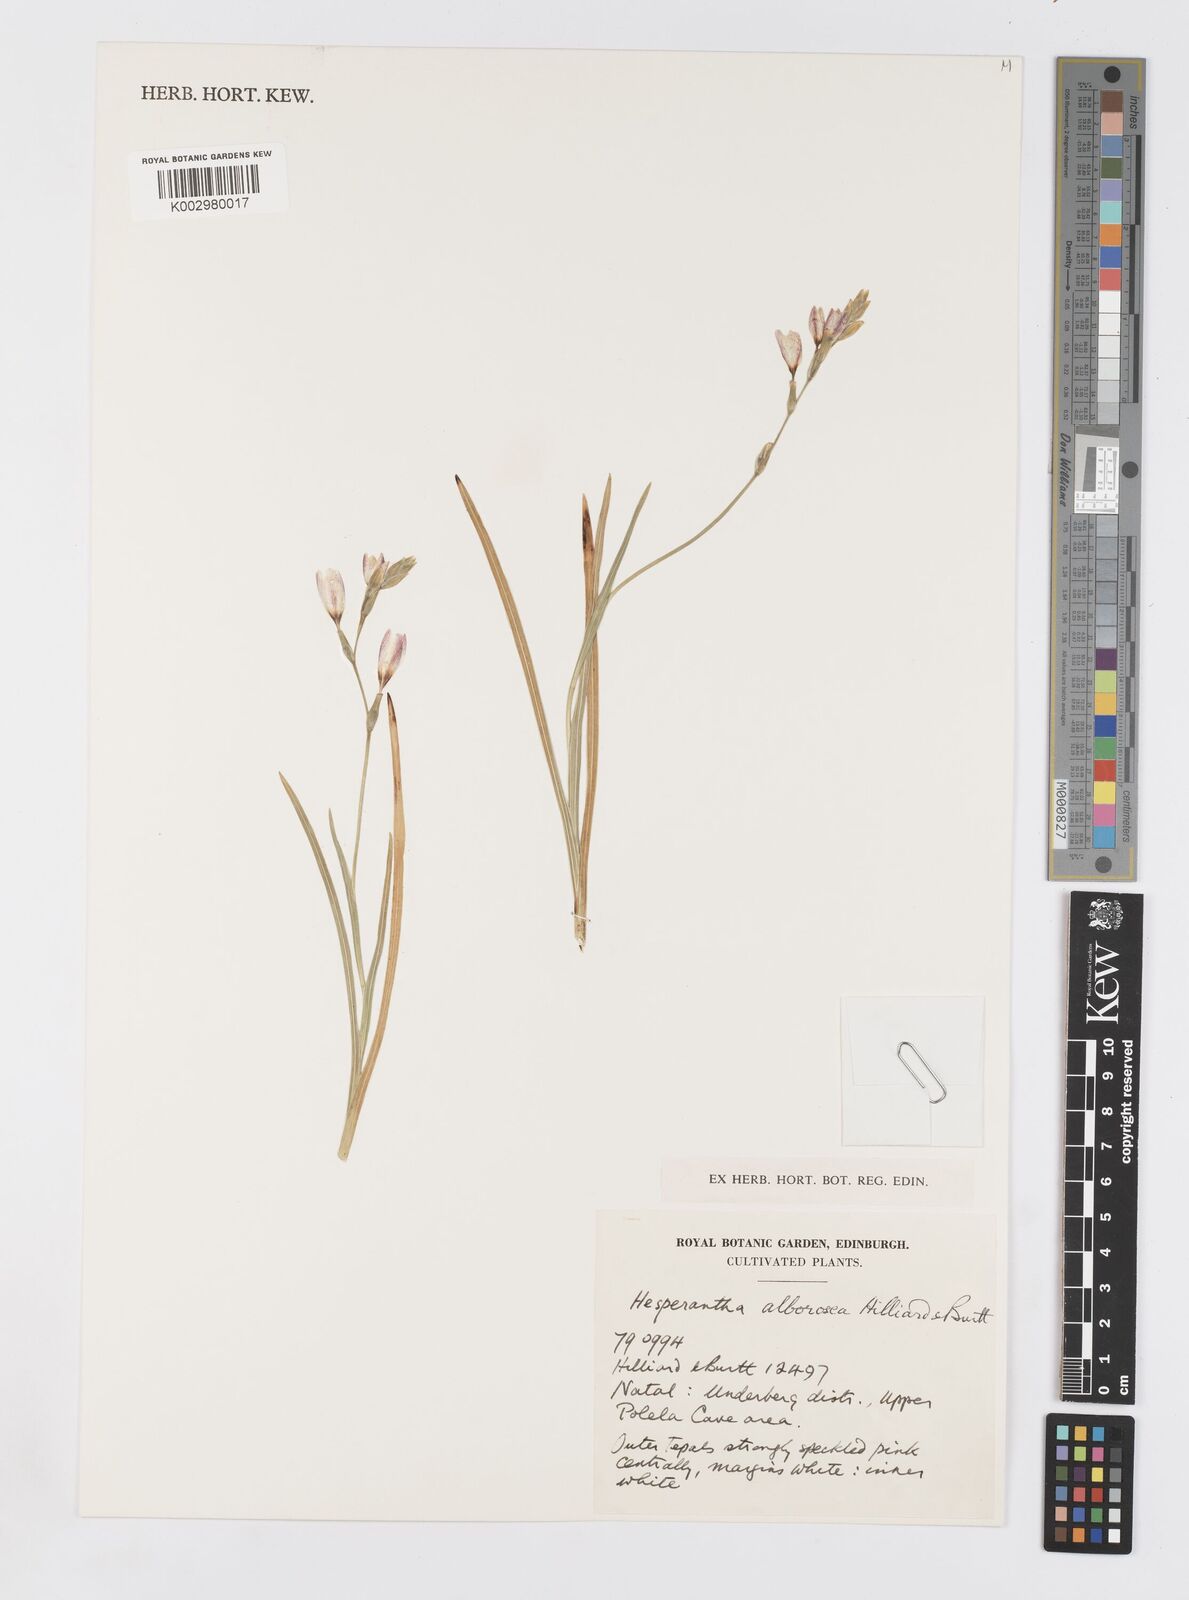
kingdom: Plantae
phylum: Tracheophyta
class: Liliopsida
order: Asparagales
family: Iridaceae
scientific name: Iridaceae
